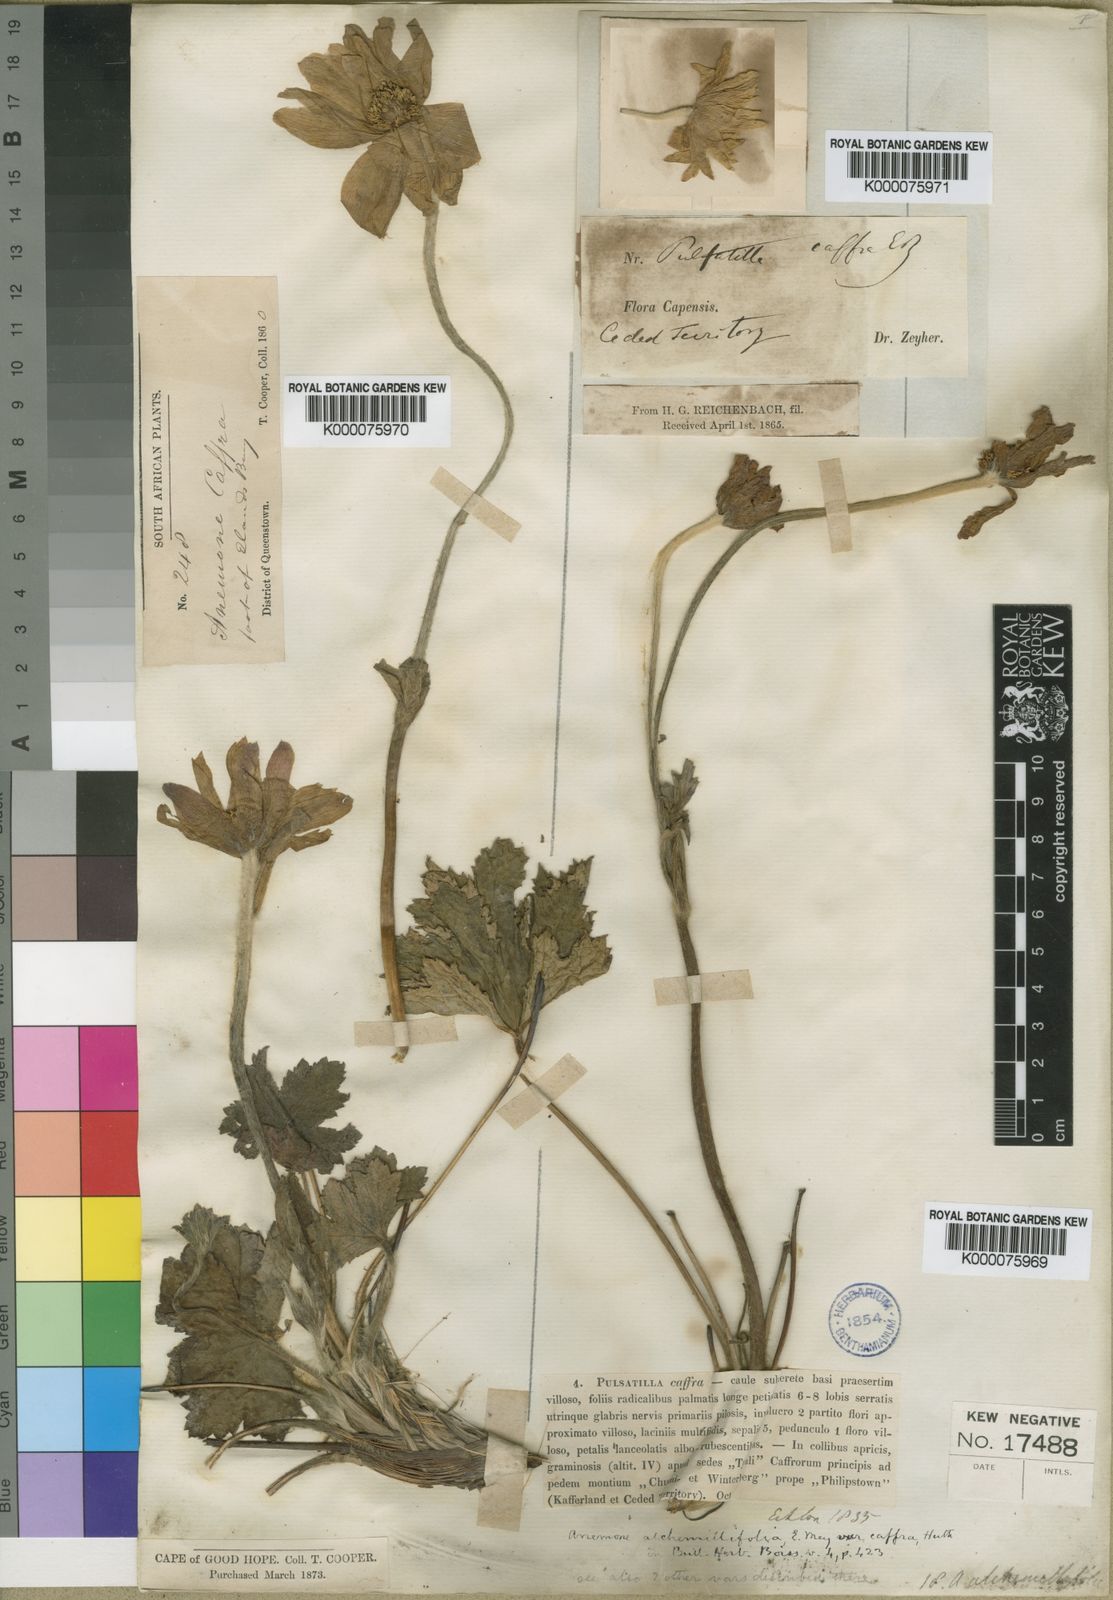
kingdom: Plantae
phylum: Tracheophyta
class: Magnoliopsida
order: Ranunculales
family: Ranunculaceae
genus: Knowltonia
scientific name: Knowltonia caffra
